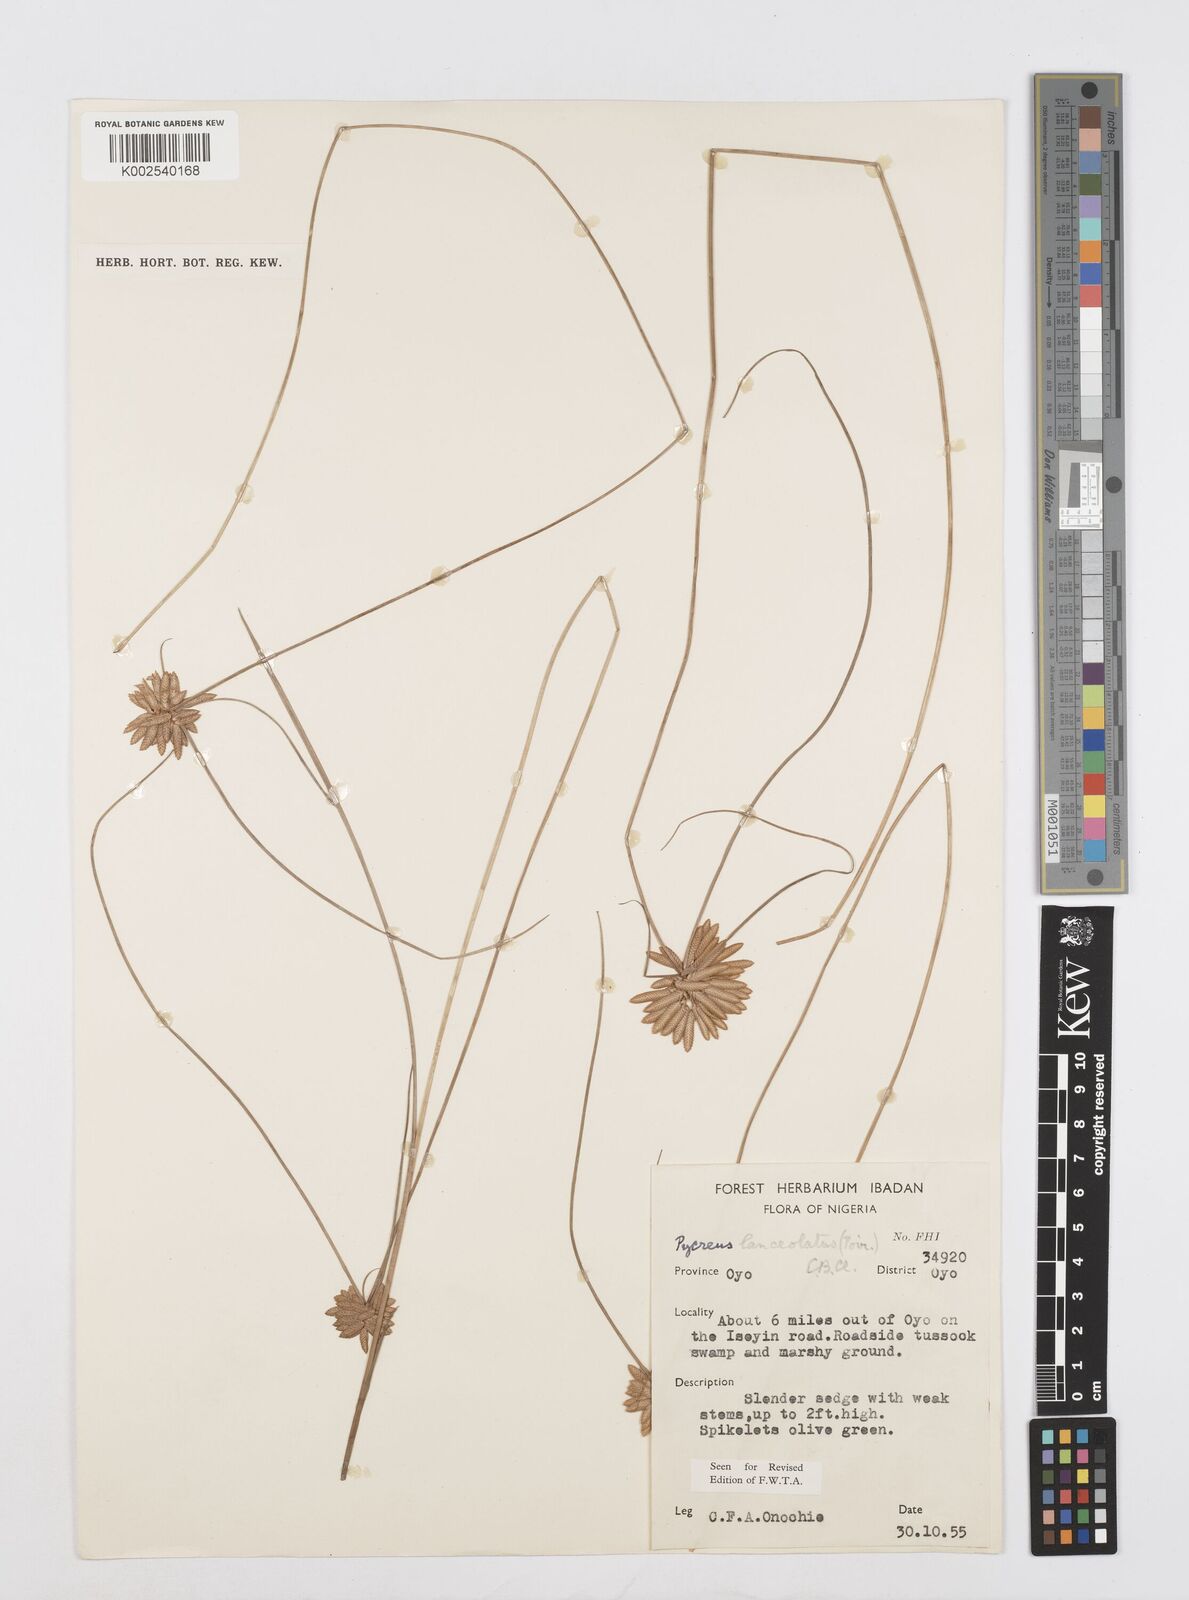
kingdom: Plantae
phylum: Tracheophyta
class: Liliopsida
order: Poales
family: Cyperaceae
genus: Cyperus
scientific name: Cyperus
